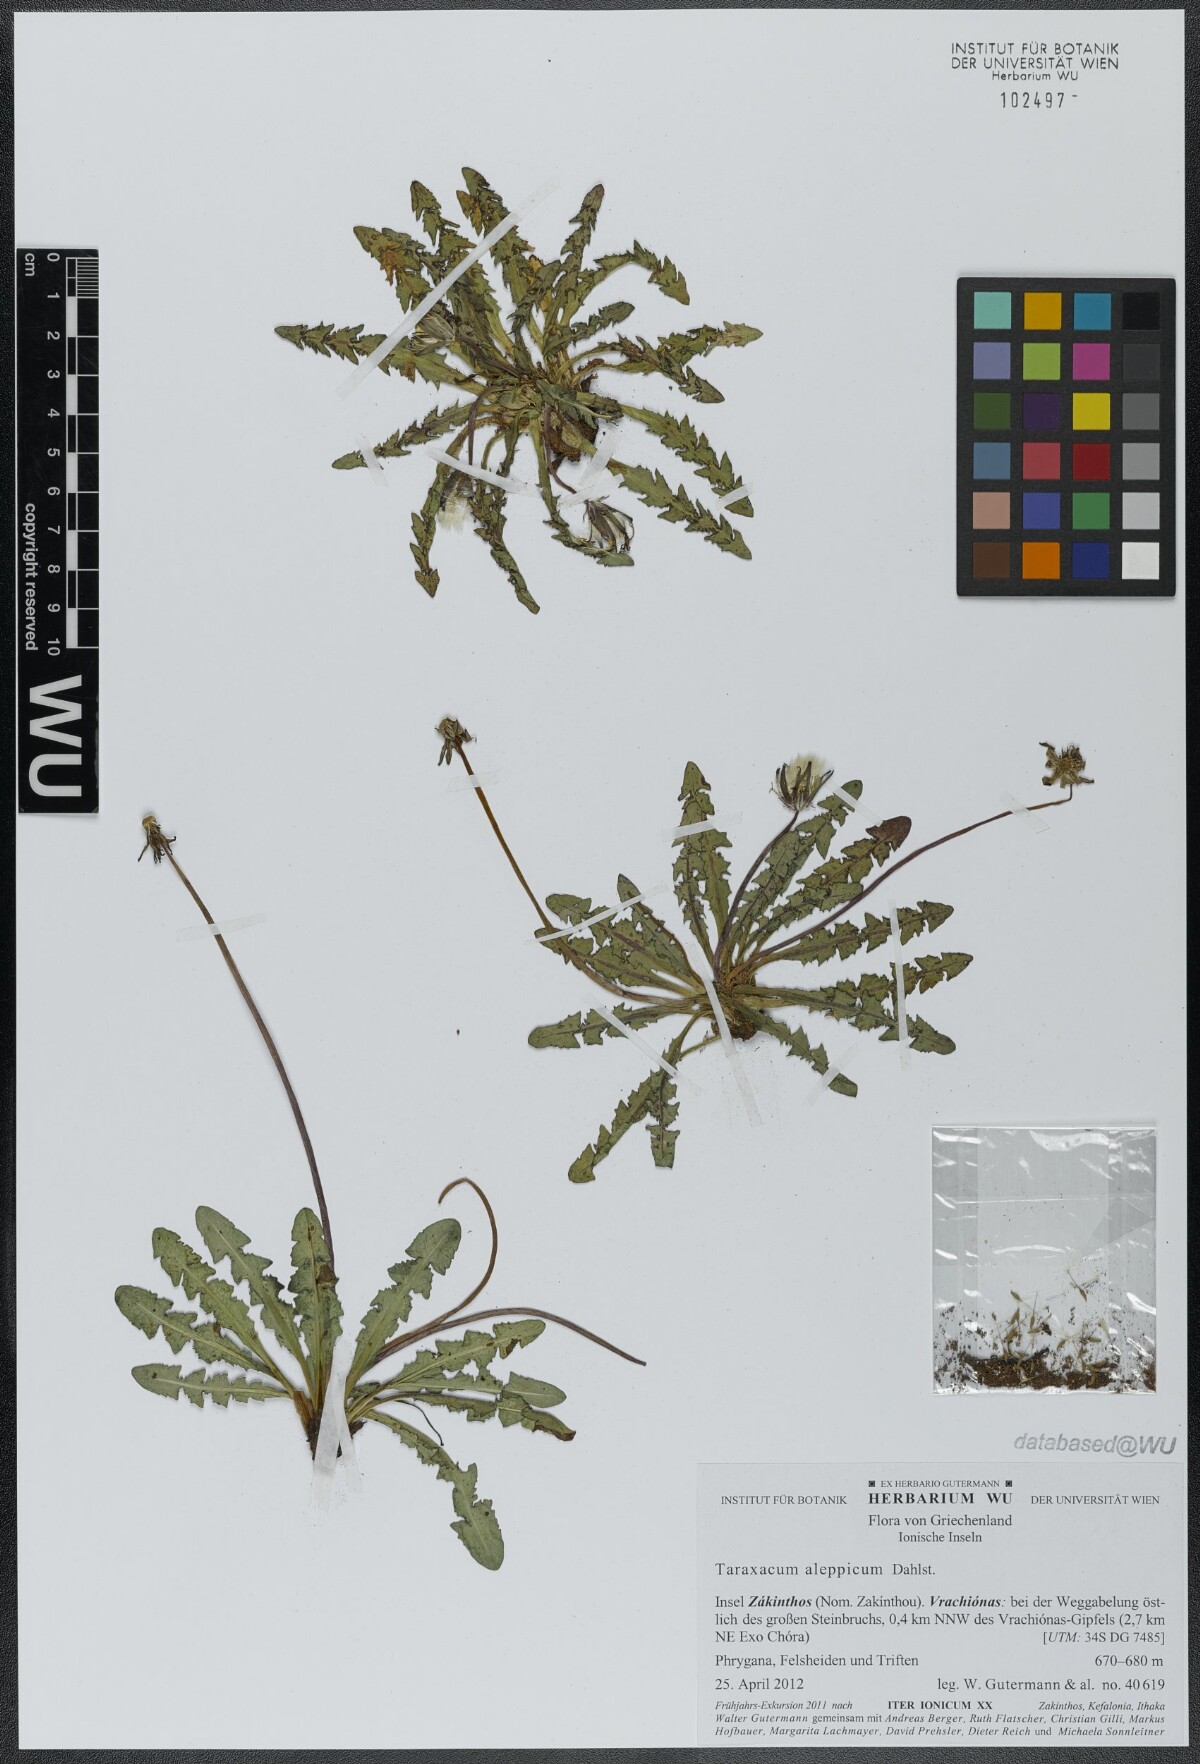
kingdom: Plantae
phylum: Tracheophyta
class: Magnoliopsida
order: Asterales
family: Asteraceae
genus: Taraxacum
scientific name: Taraxacum aleppicum
